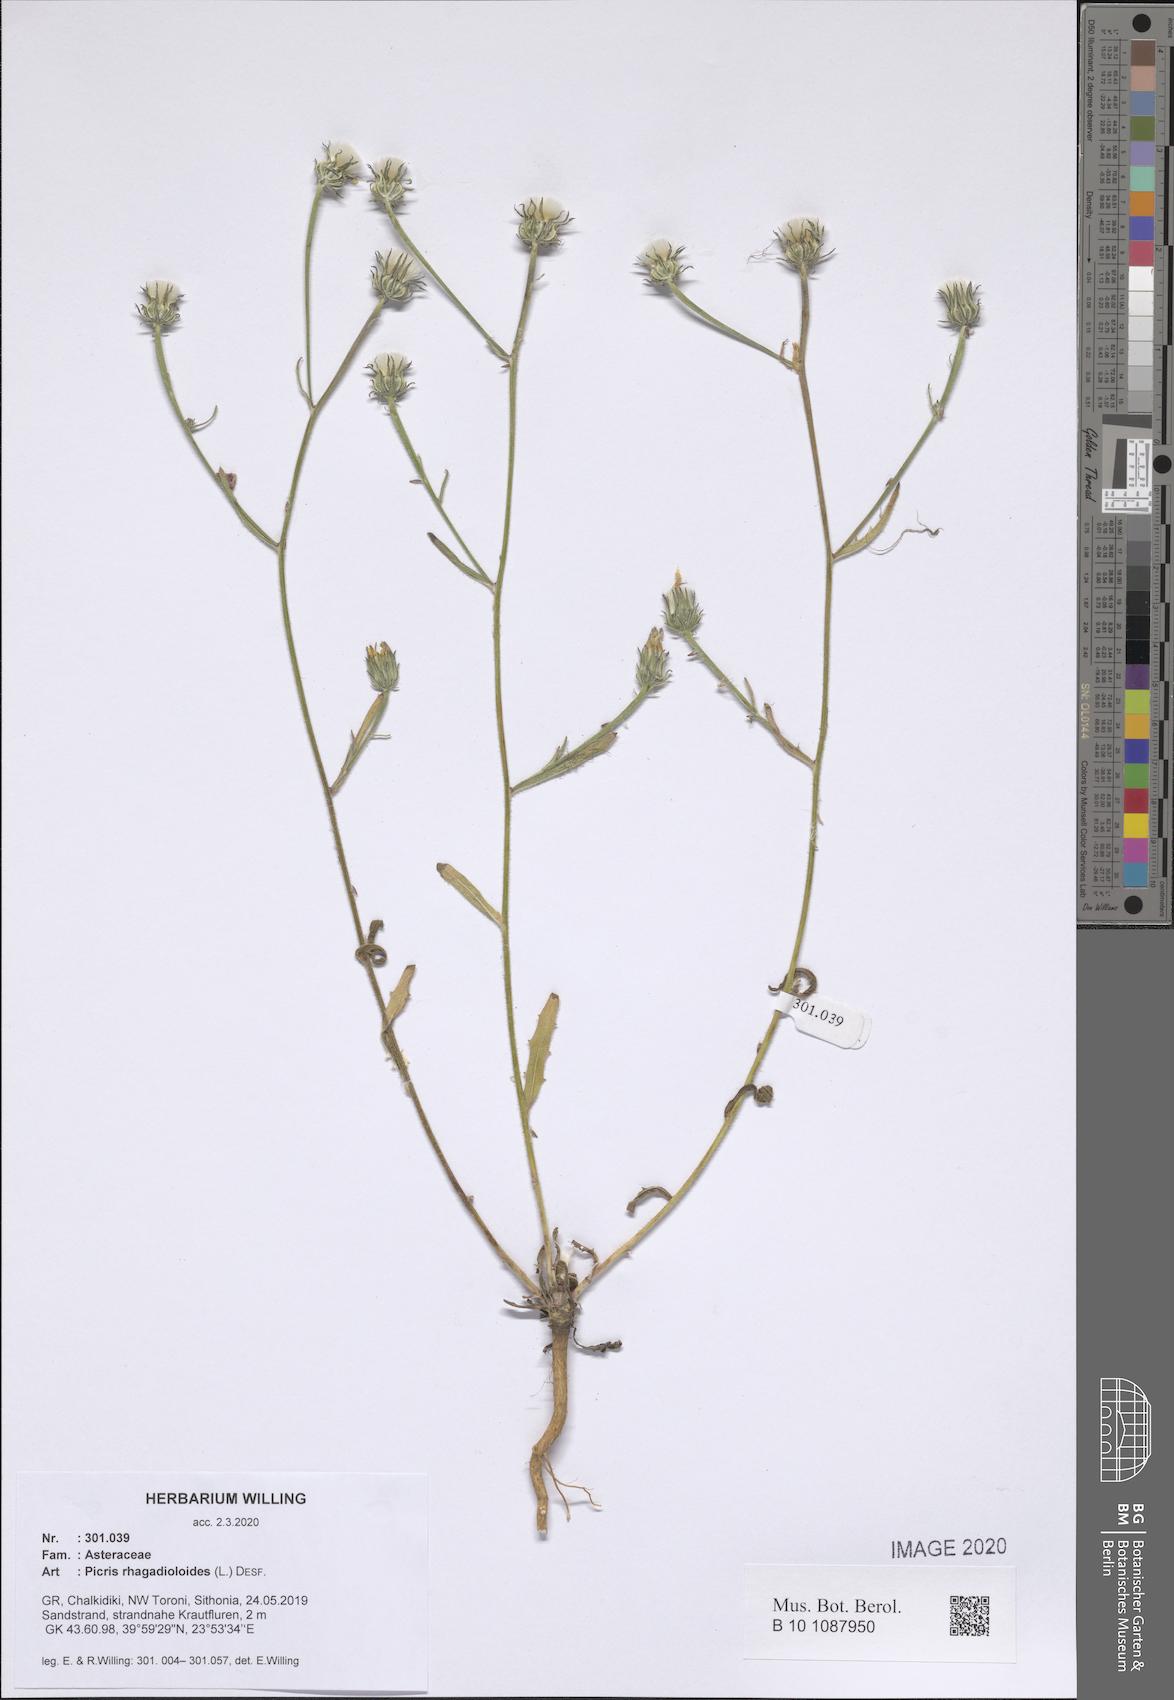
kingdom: Plantae
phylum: Tracheophyta
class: Magnoliopsida
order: Asterales
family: Asteraceae
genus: Picris
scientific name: Picris rhagadioloides
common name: Oxtongue
